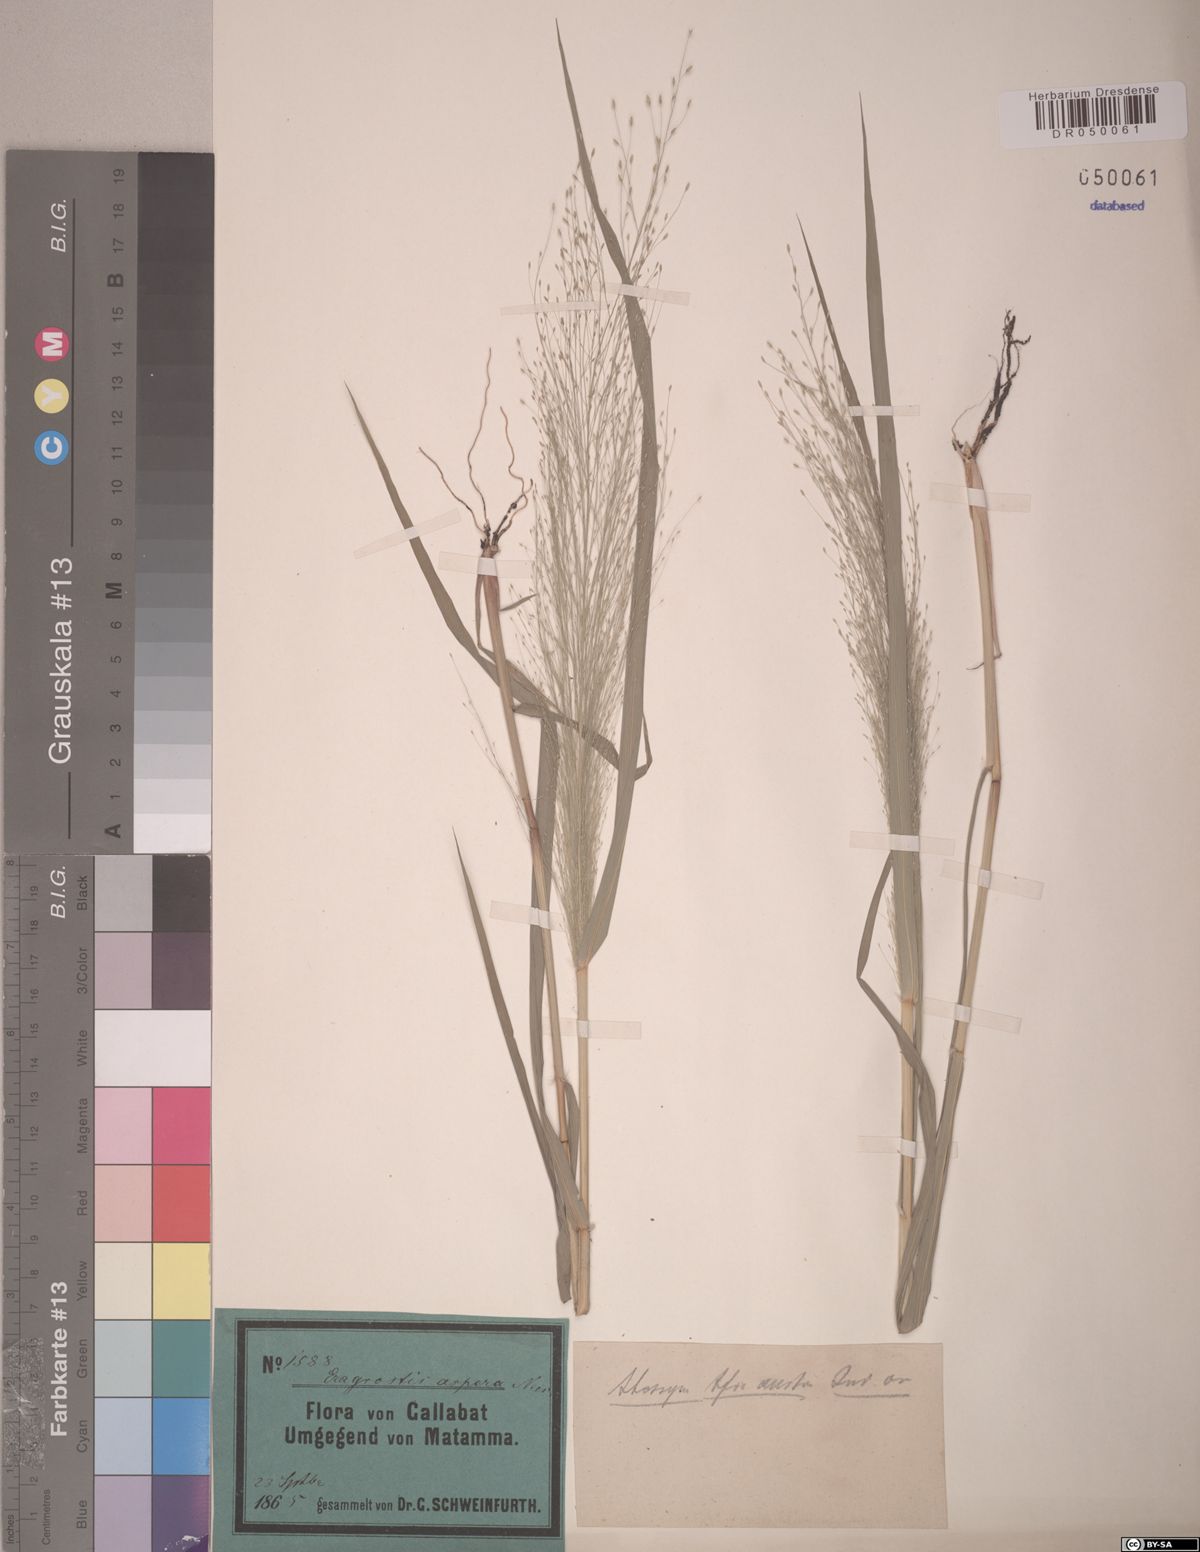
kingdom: Plantae
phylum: Tracheophyta
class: Liliopsida
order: Poales
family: Poaceae
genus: Eragrostis
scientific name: Eragrostis aspera
